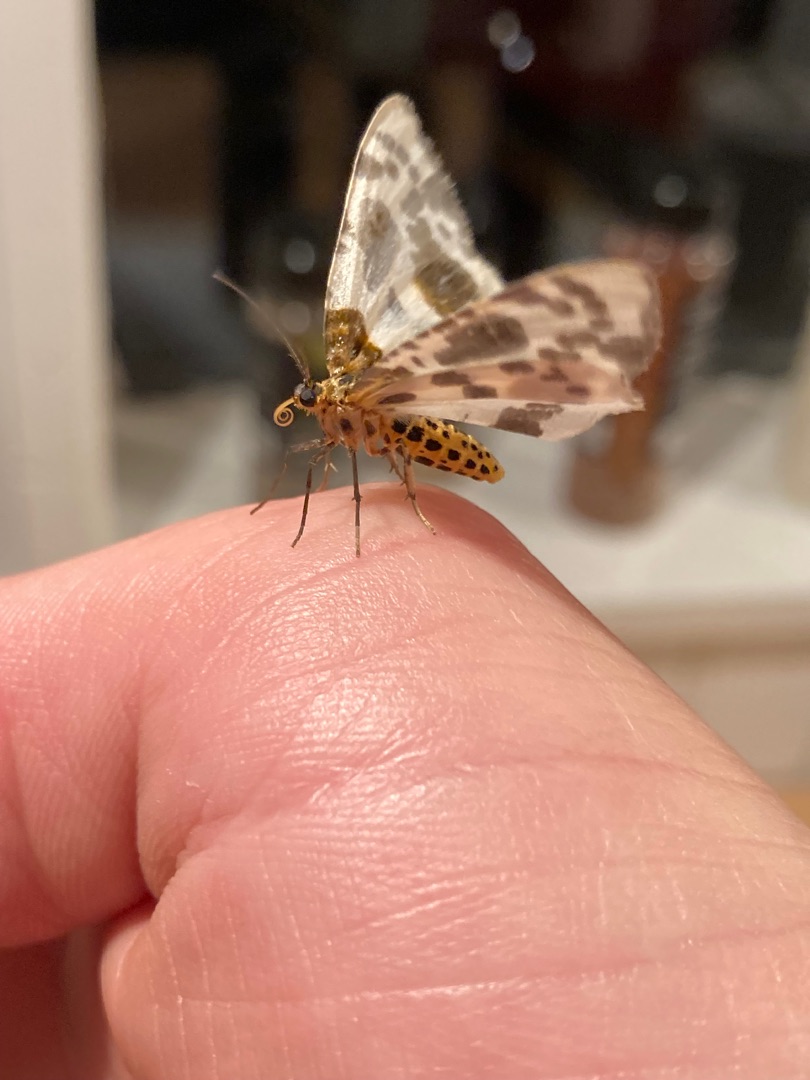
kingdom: Animalia
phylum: Arthropoda
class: Insecta
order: Lepidoptera
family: Geometridae
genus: Abraxas
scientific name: Abraxas sylvata
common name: Elmemåler
